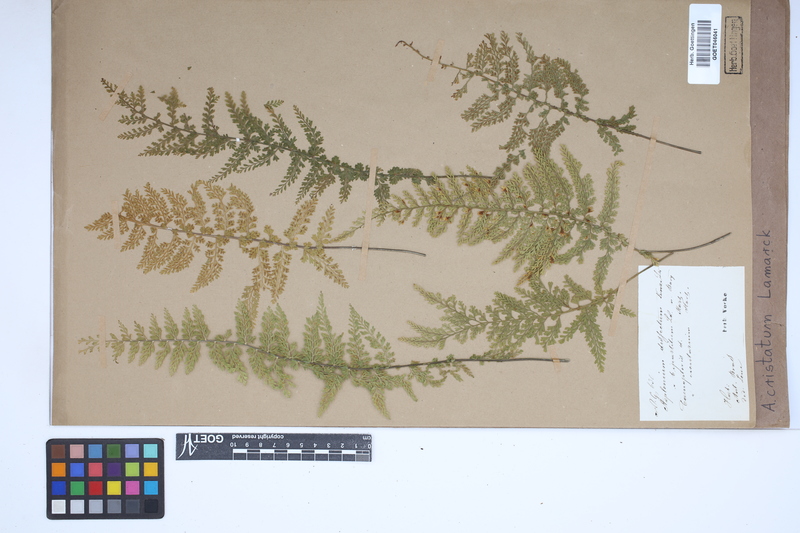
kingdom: Plantae
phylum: Tracheophyta
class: Polypodiopsida
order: Polypodiales
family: Aspleniaceae
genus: Asplenium
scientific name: Asplenium cristatum
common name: Parsley spleenwort
